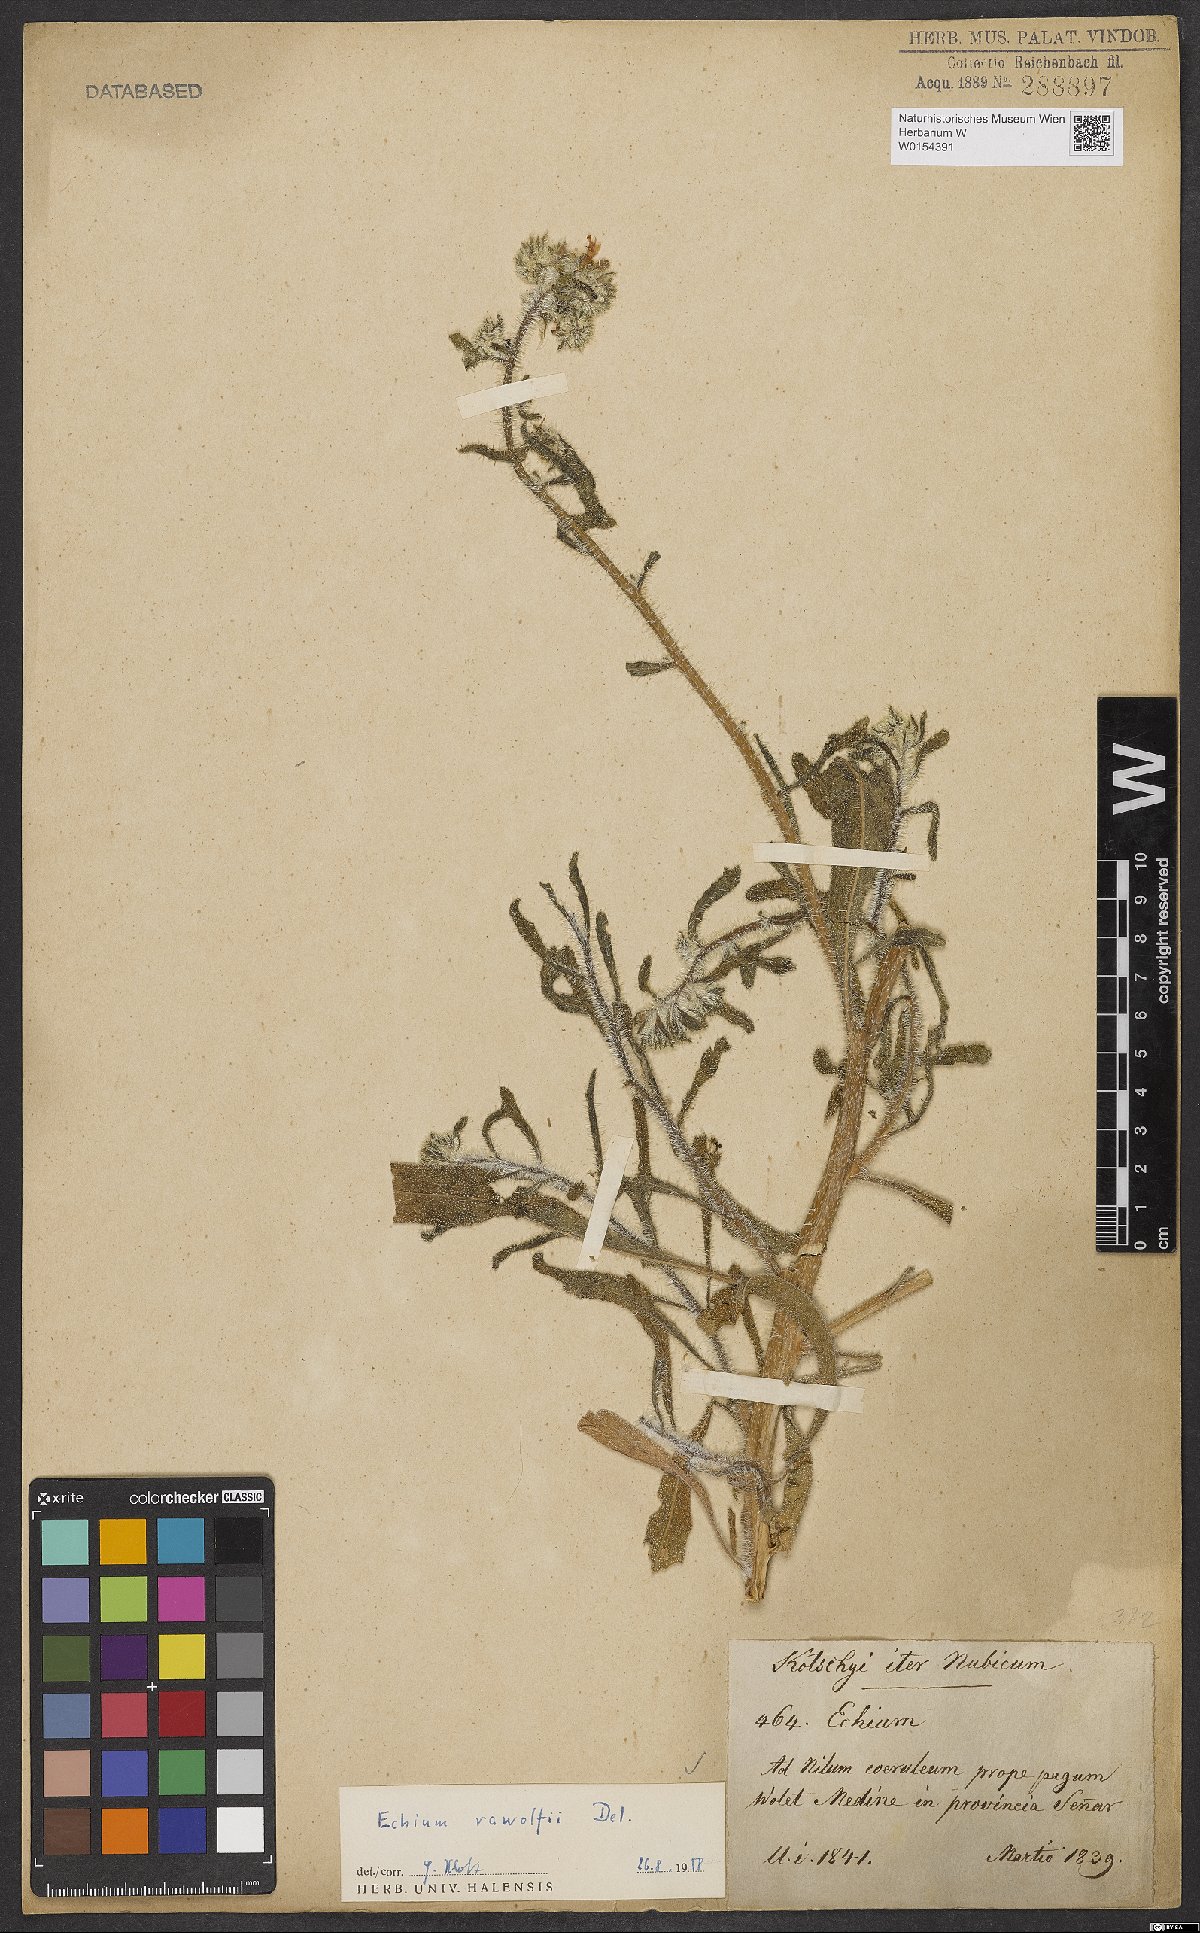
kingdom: Plantae
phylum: Tracheophyta
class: Magnoliopsida
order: Boraginales
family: Boraginaceae
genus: Echium
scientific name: Echium rauwolfii
